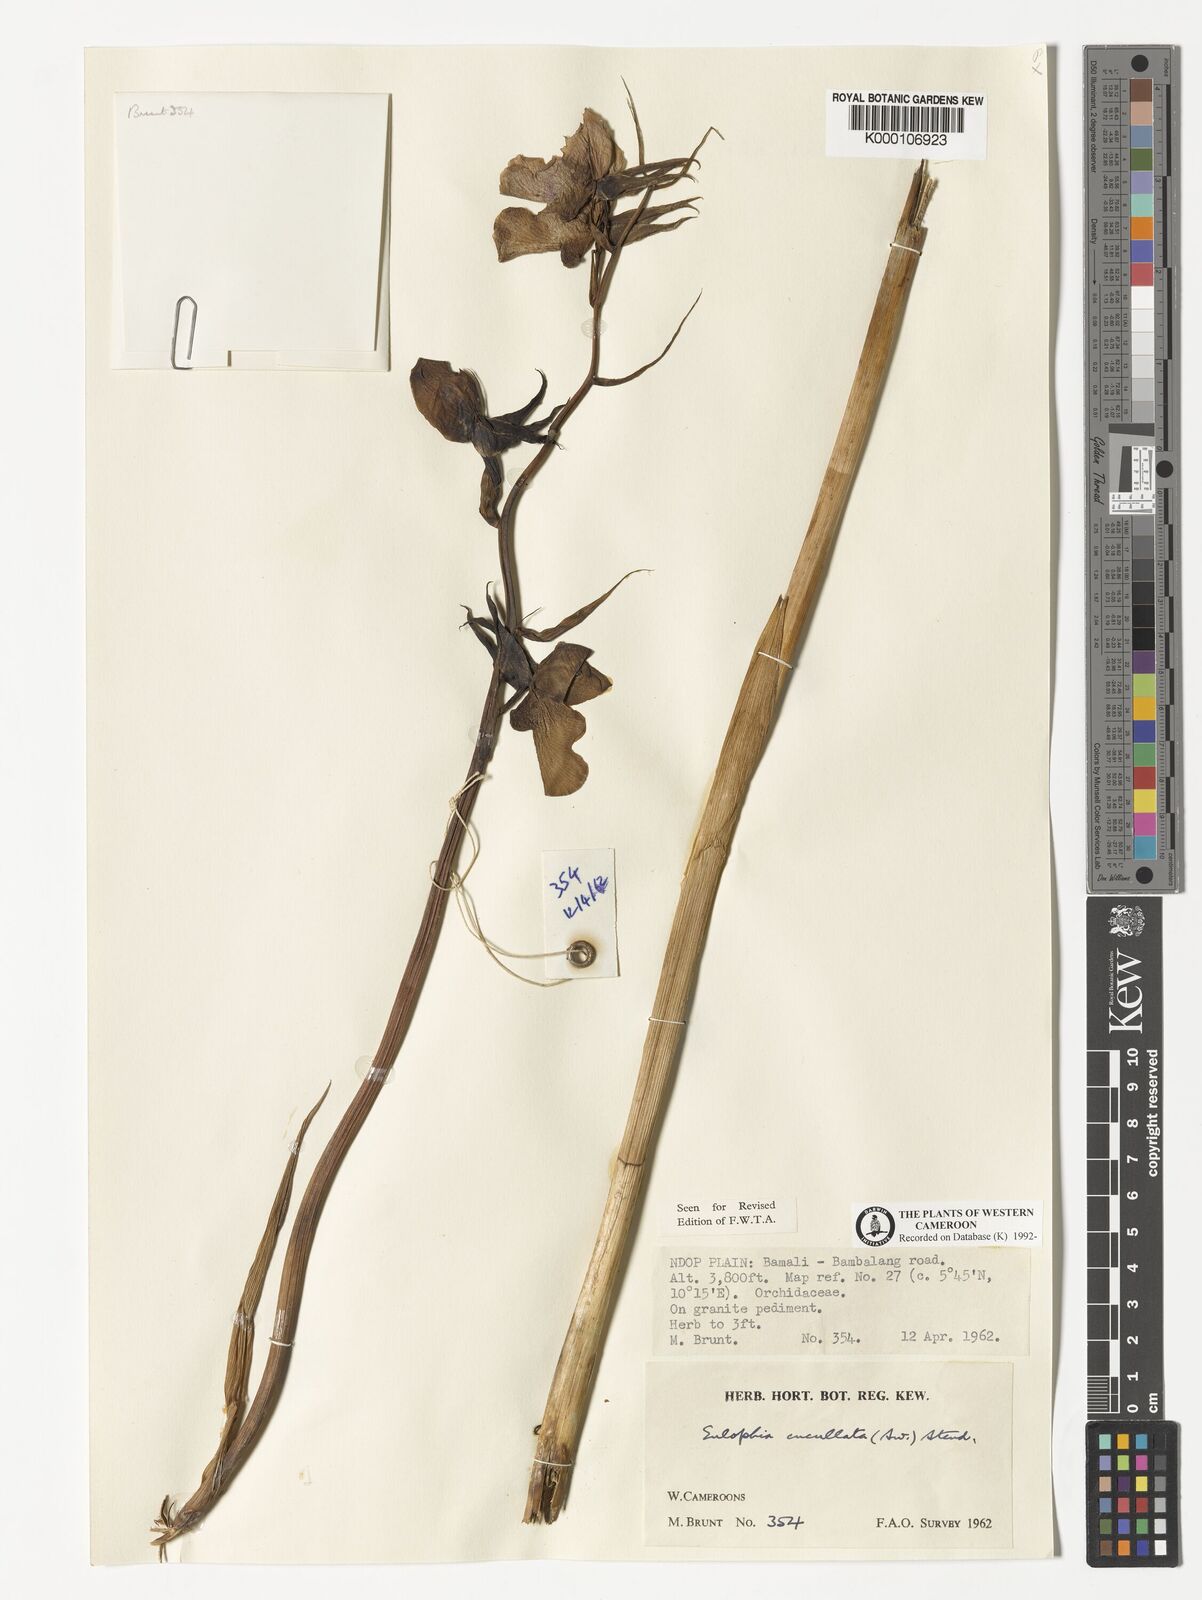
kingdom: Plantae
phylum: Tracheophyta
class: Liliopsida
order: Asparagales
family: Orchidaceae
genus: Eulophia
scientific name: Eulophia cucullata
